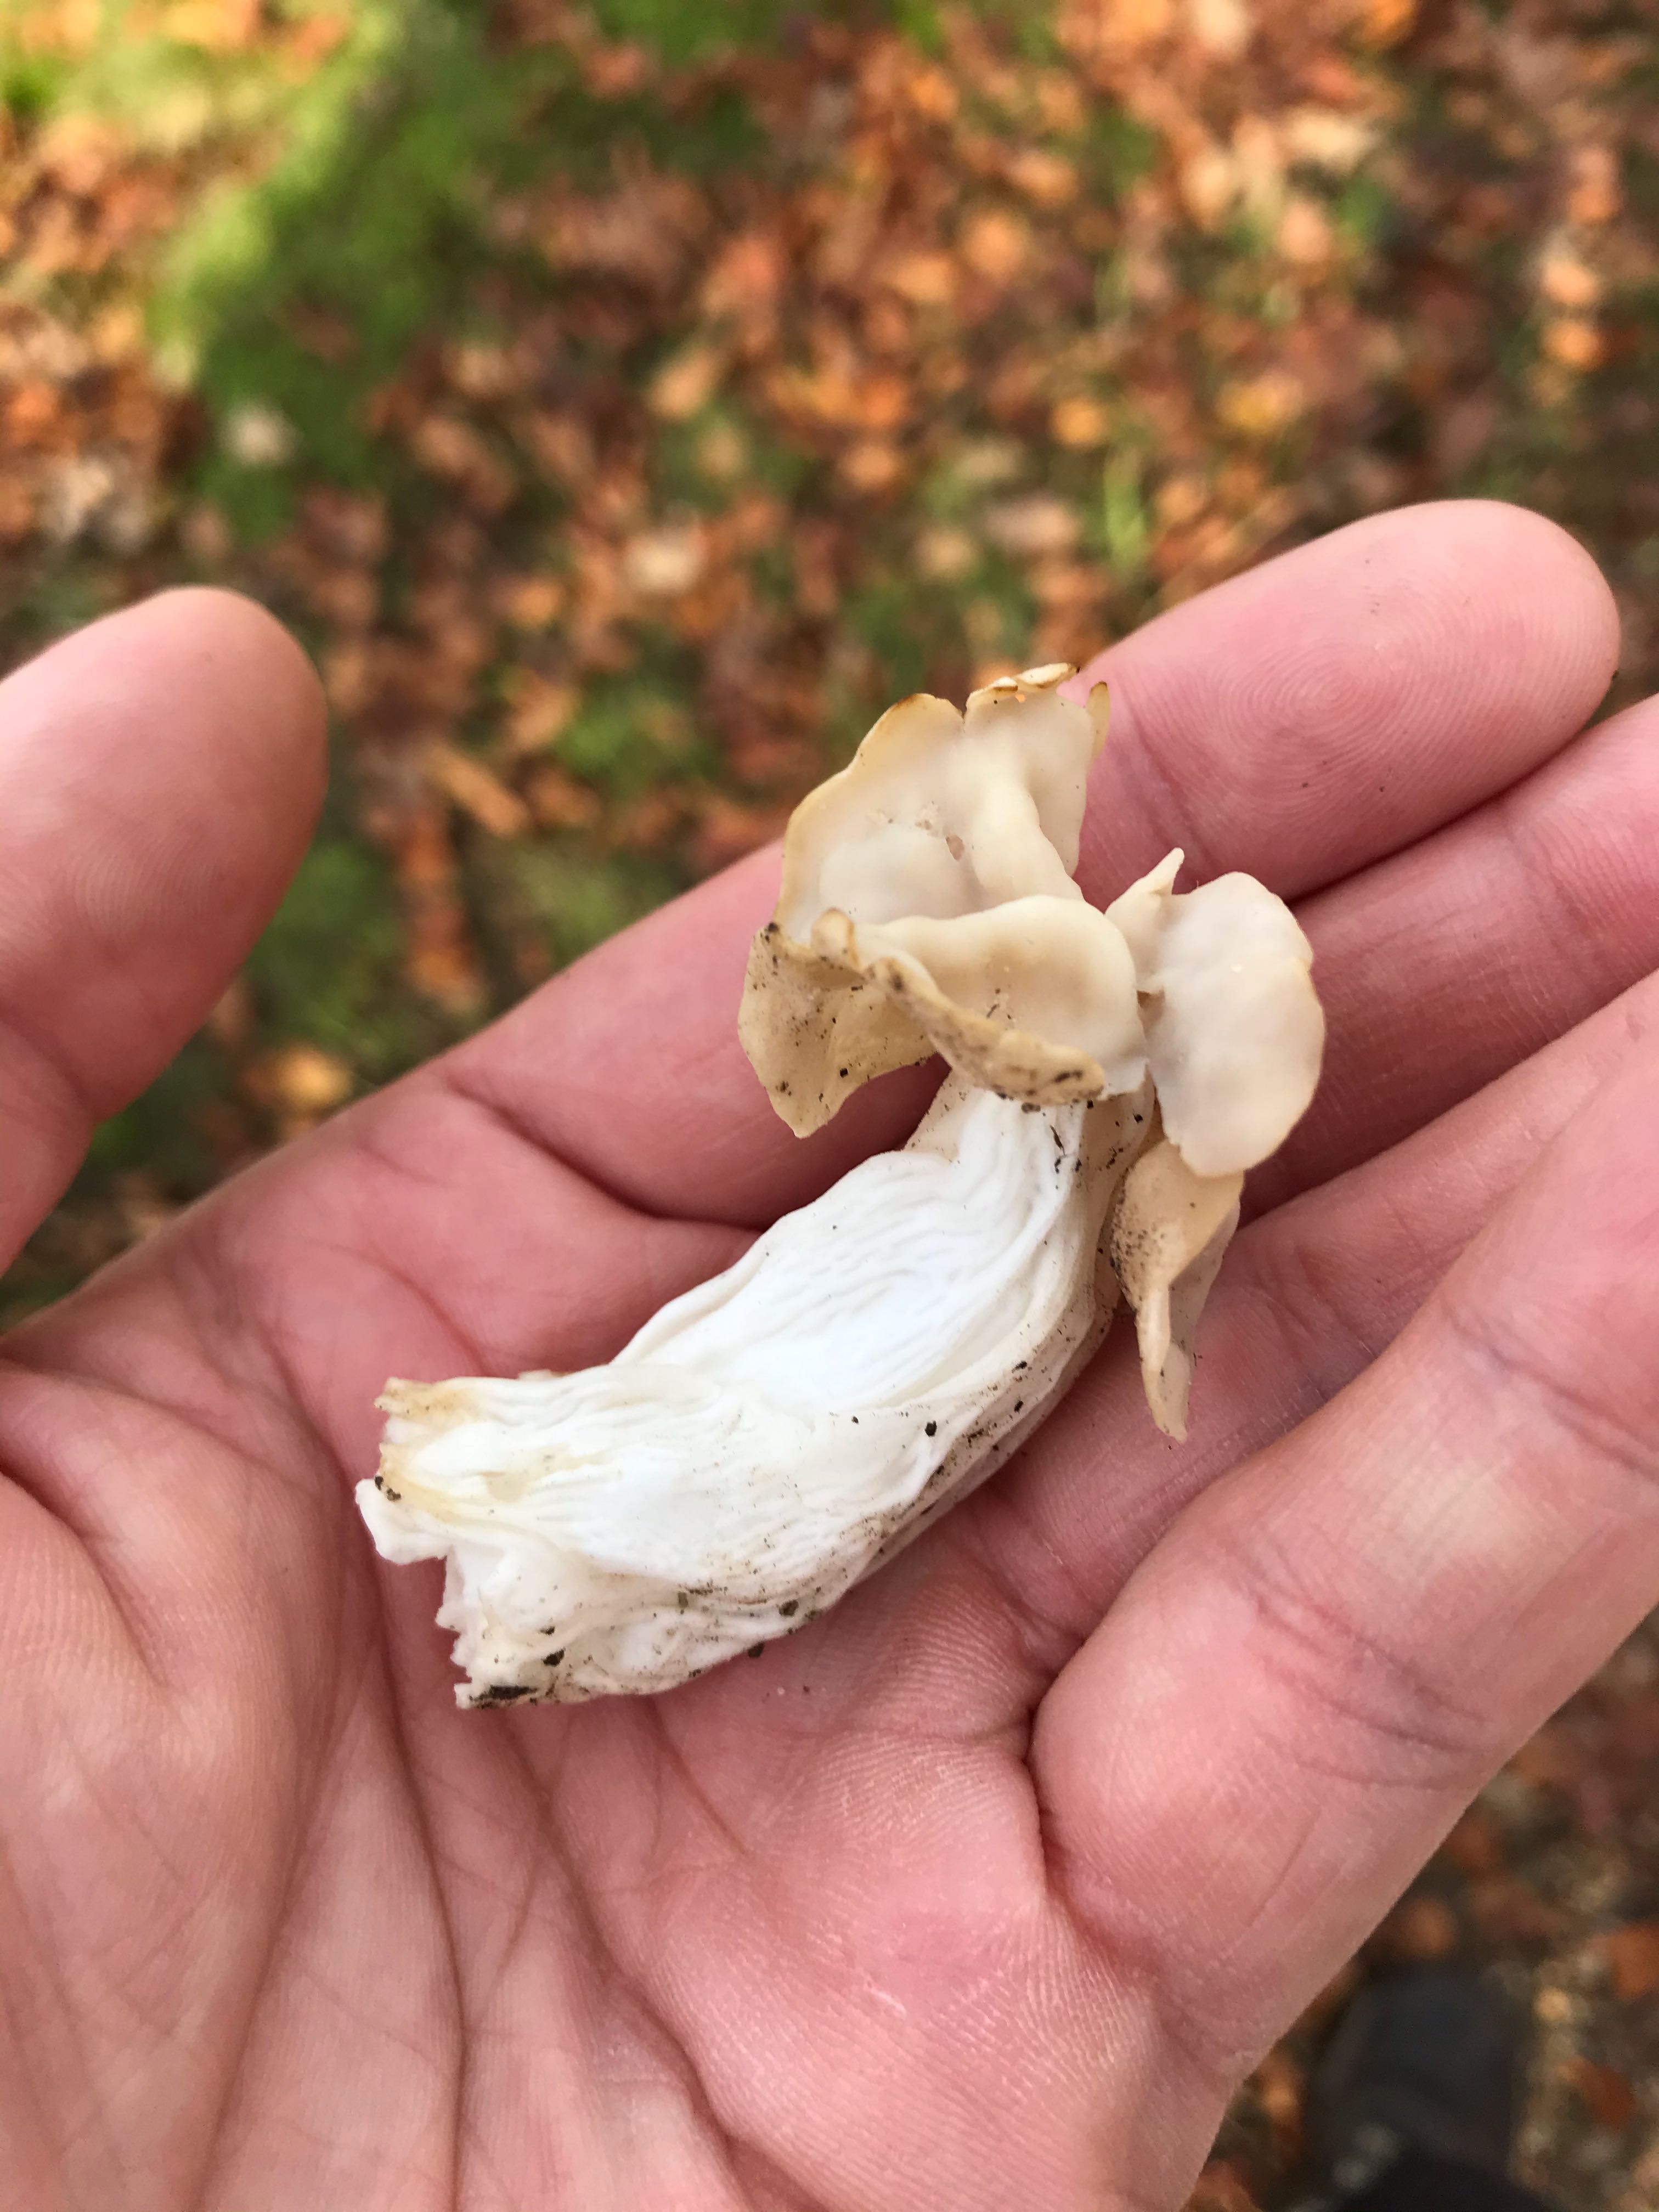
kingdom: Fungi
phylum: Ascomycota
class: Pezizomycetes
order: Pezizales
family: Helvellaceae
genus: Helvella
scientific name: Helvella crispa
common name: kruset foldhat
